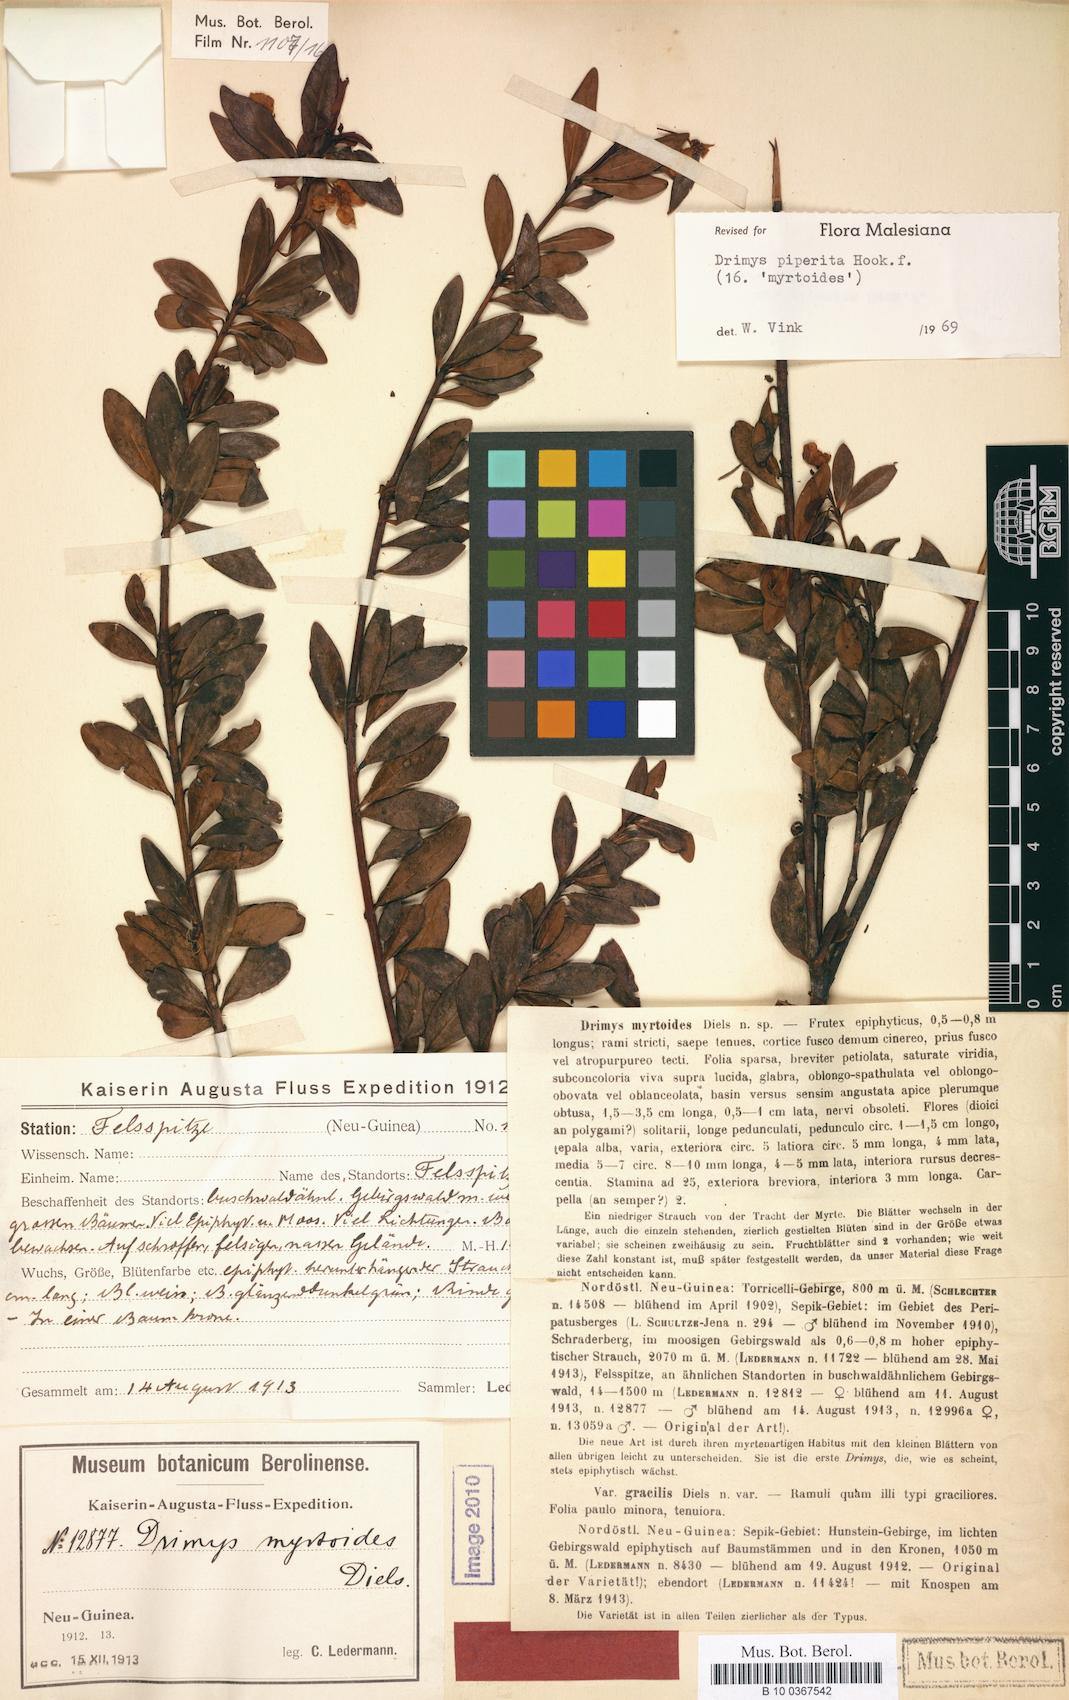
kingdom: Plantae
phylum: Tracheophyta
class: Magnoliopsida
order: Canellales
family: Winteraceae
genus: Drimys
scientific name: Drimys piperita
